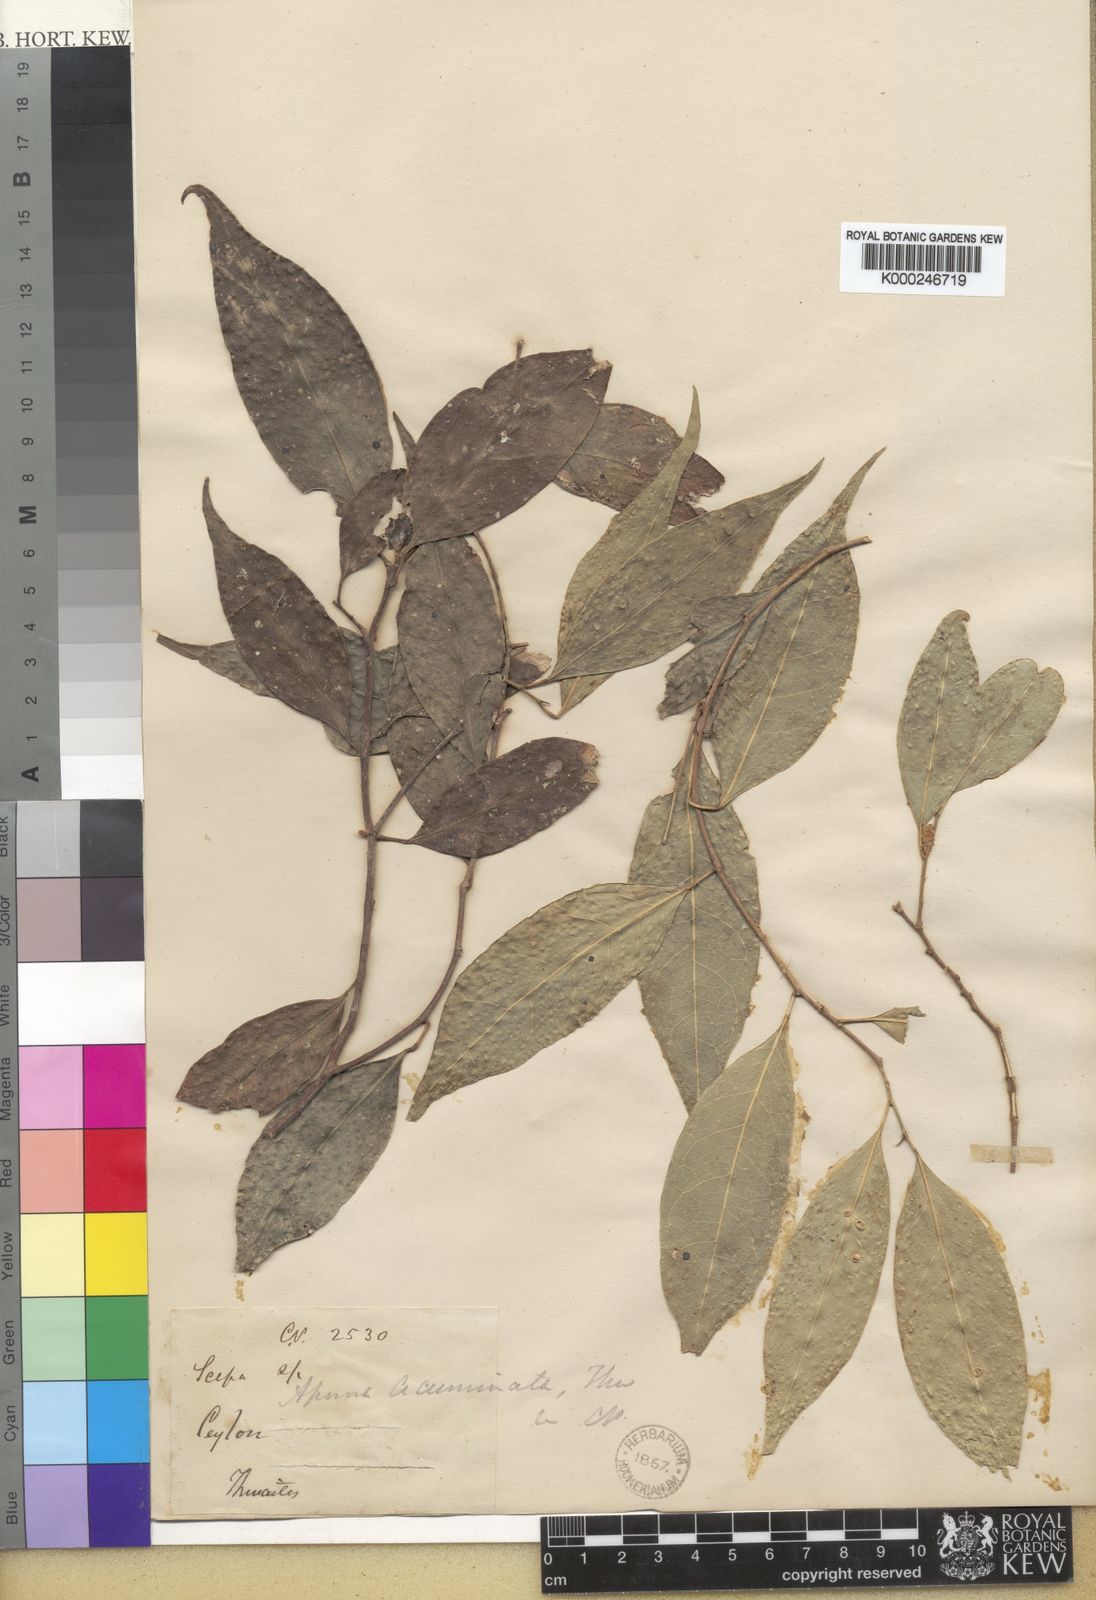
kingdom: Plantae
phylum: Tracheophyta
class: Magnoliopsida
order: Malpighiales
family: Phyllanthaceae
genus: Aporosa
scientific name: Aporosa acuminata
